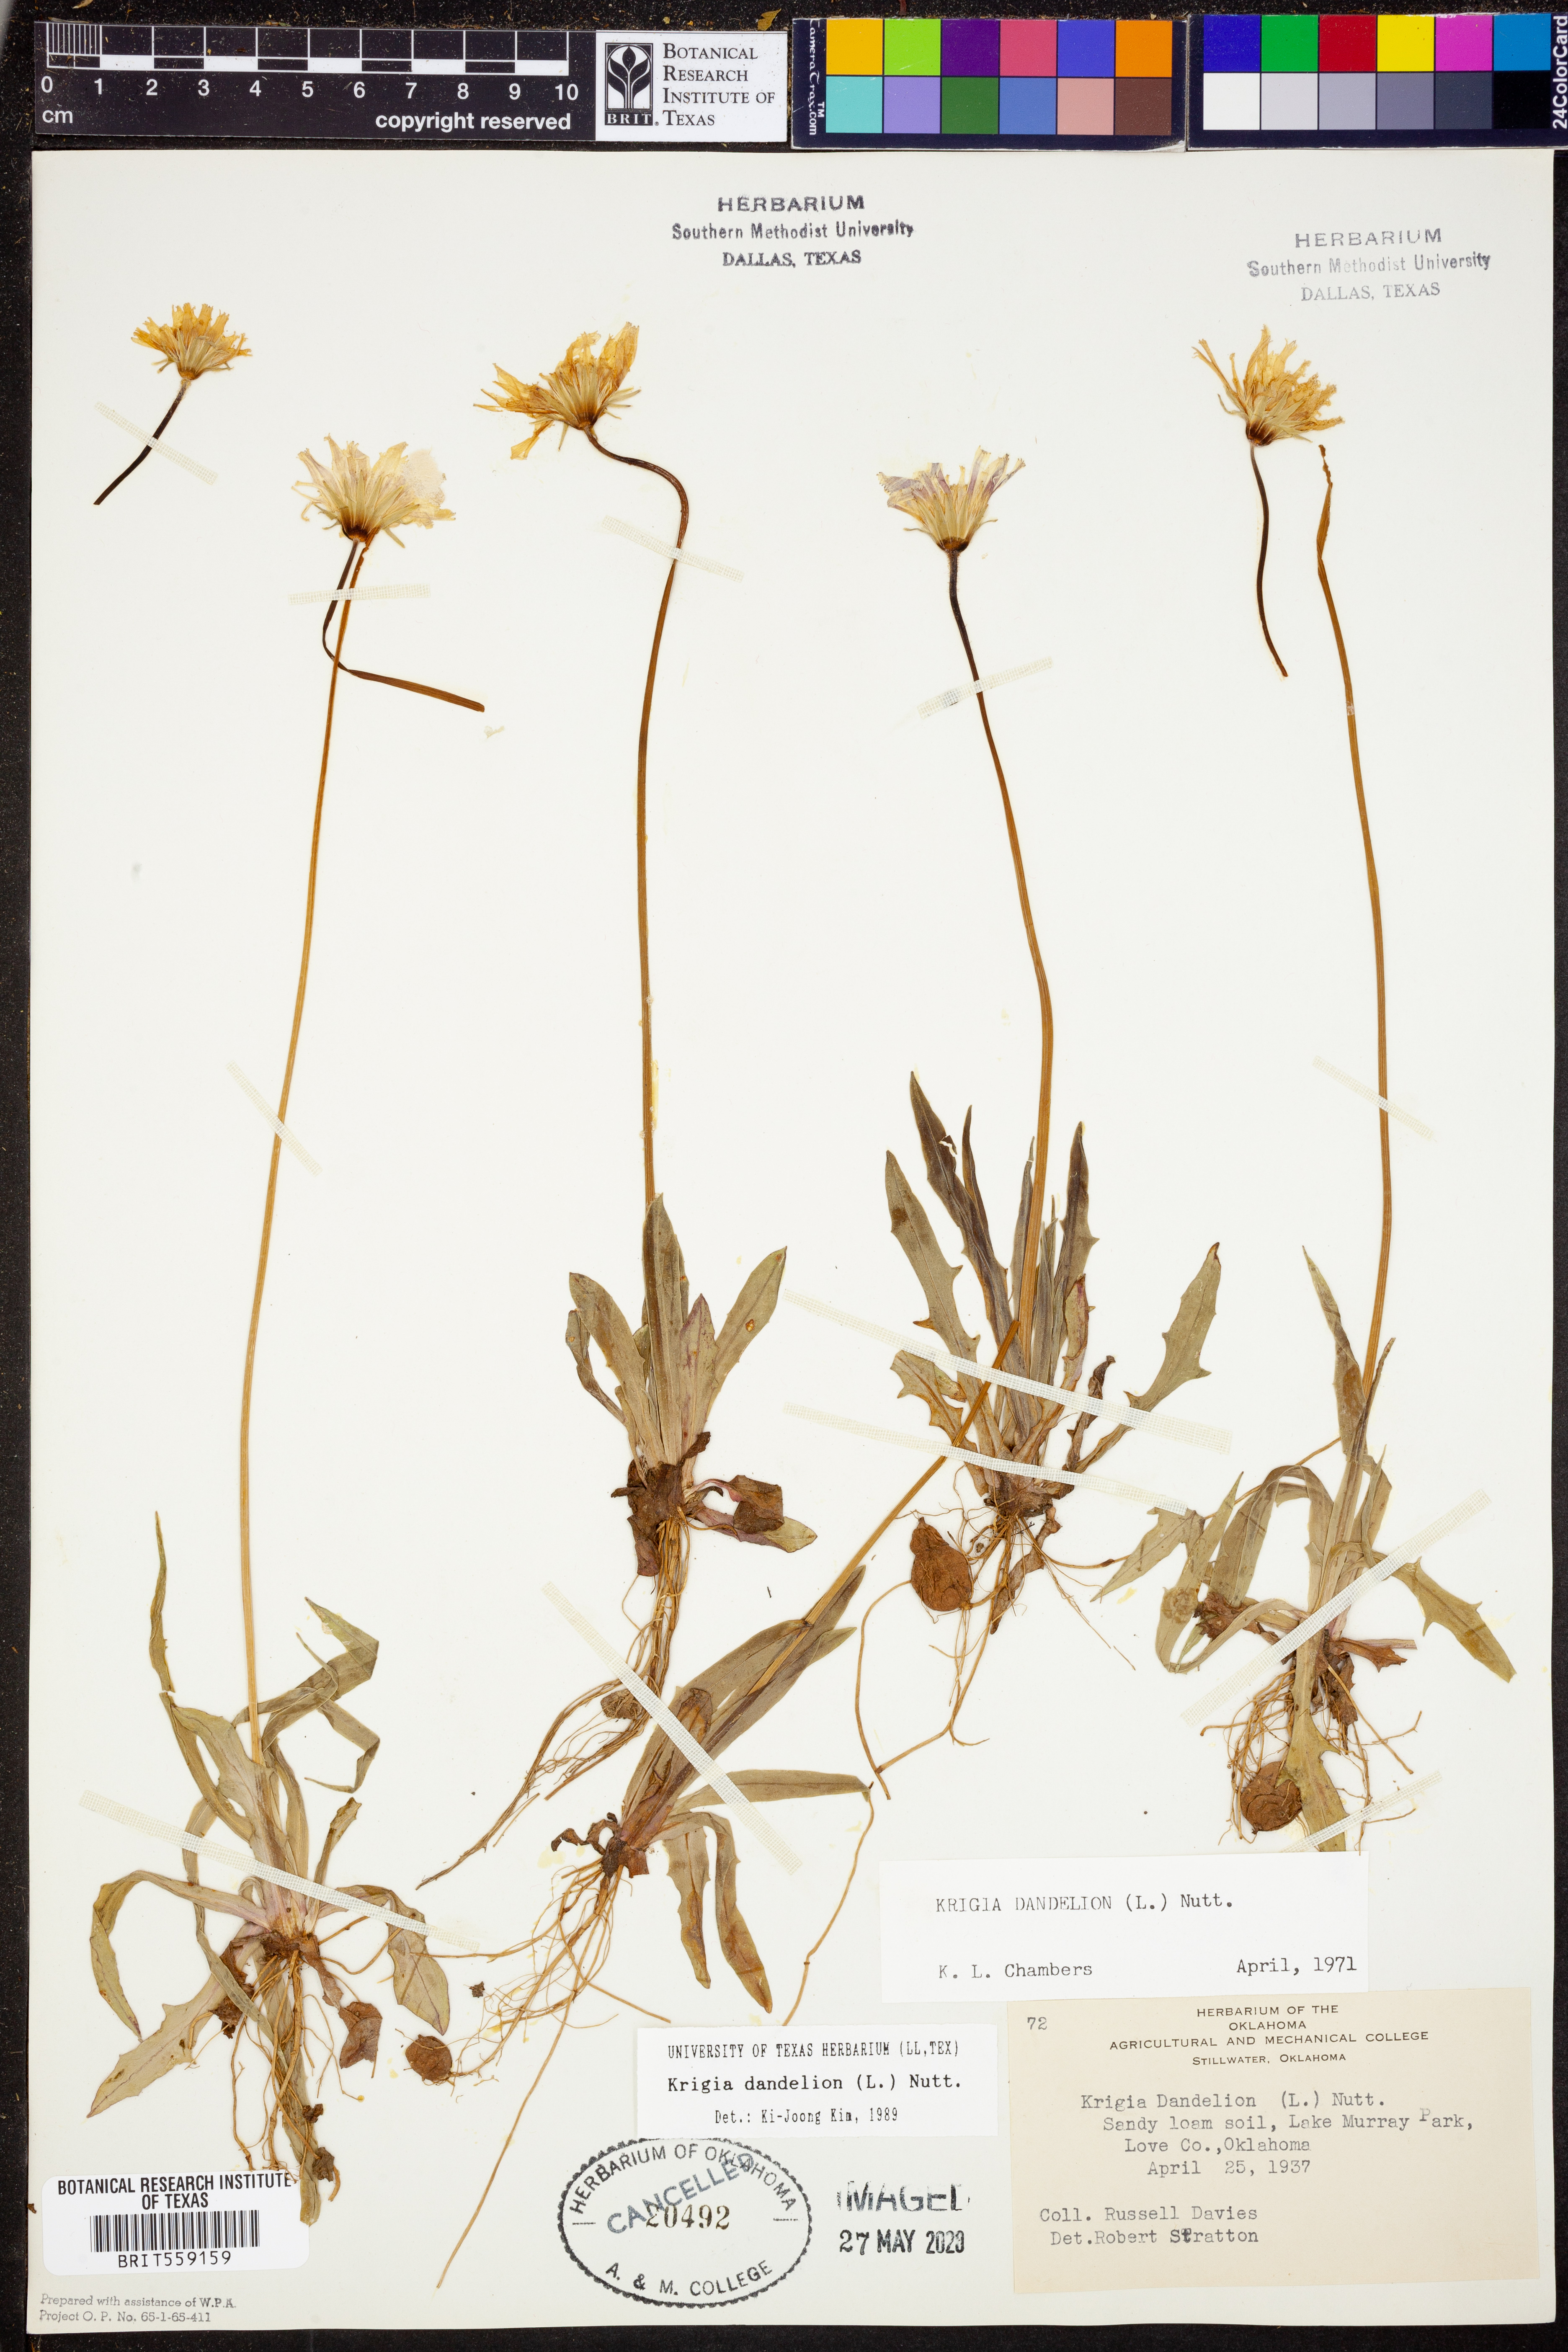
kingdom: Plantae
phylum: Tracheophyta
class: Magnoliopsida
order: Asterales
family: Asteraceae
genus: Krigia
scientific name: Krigia dandelion
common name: Colonial dwarf-dandelion
